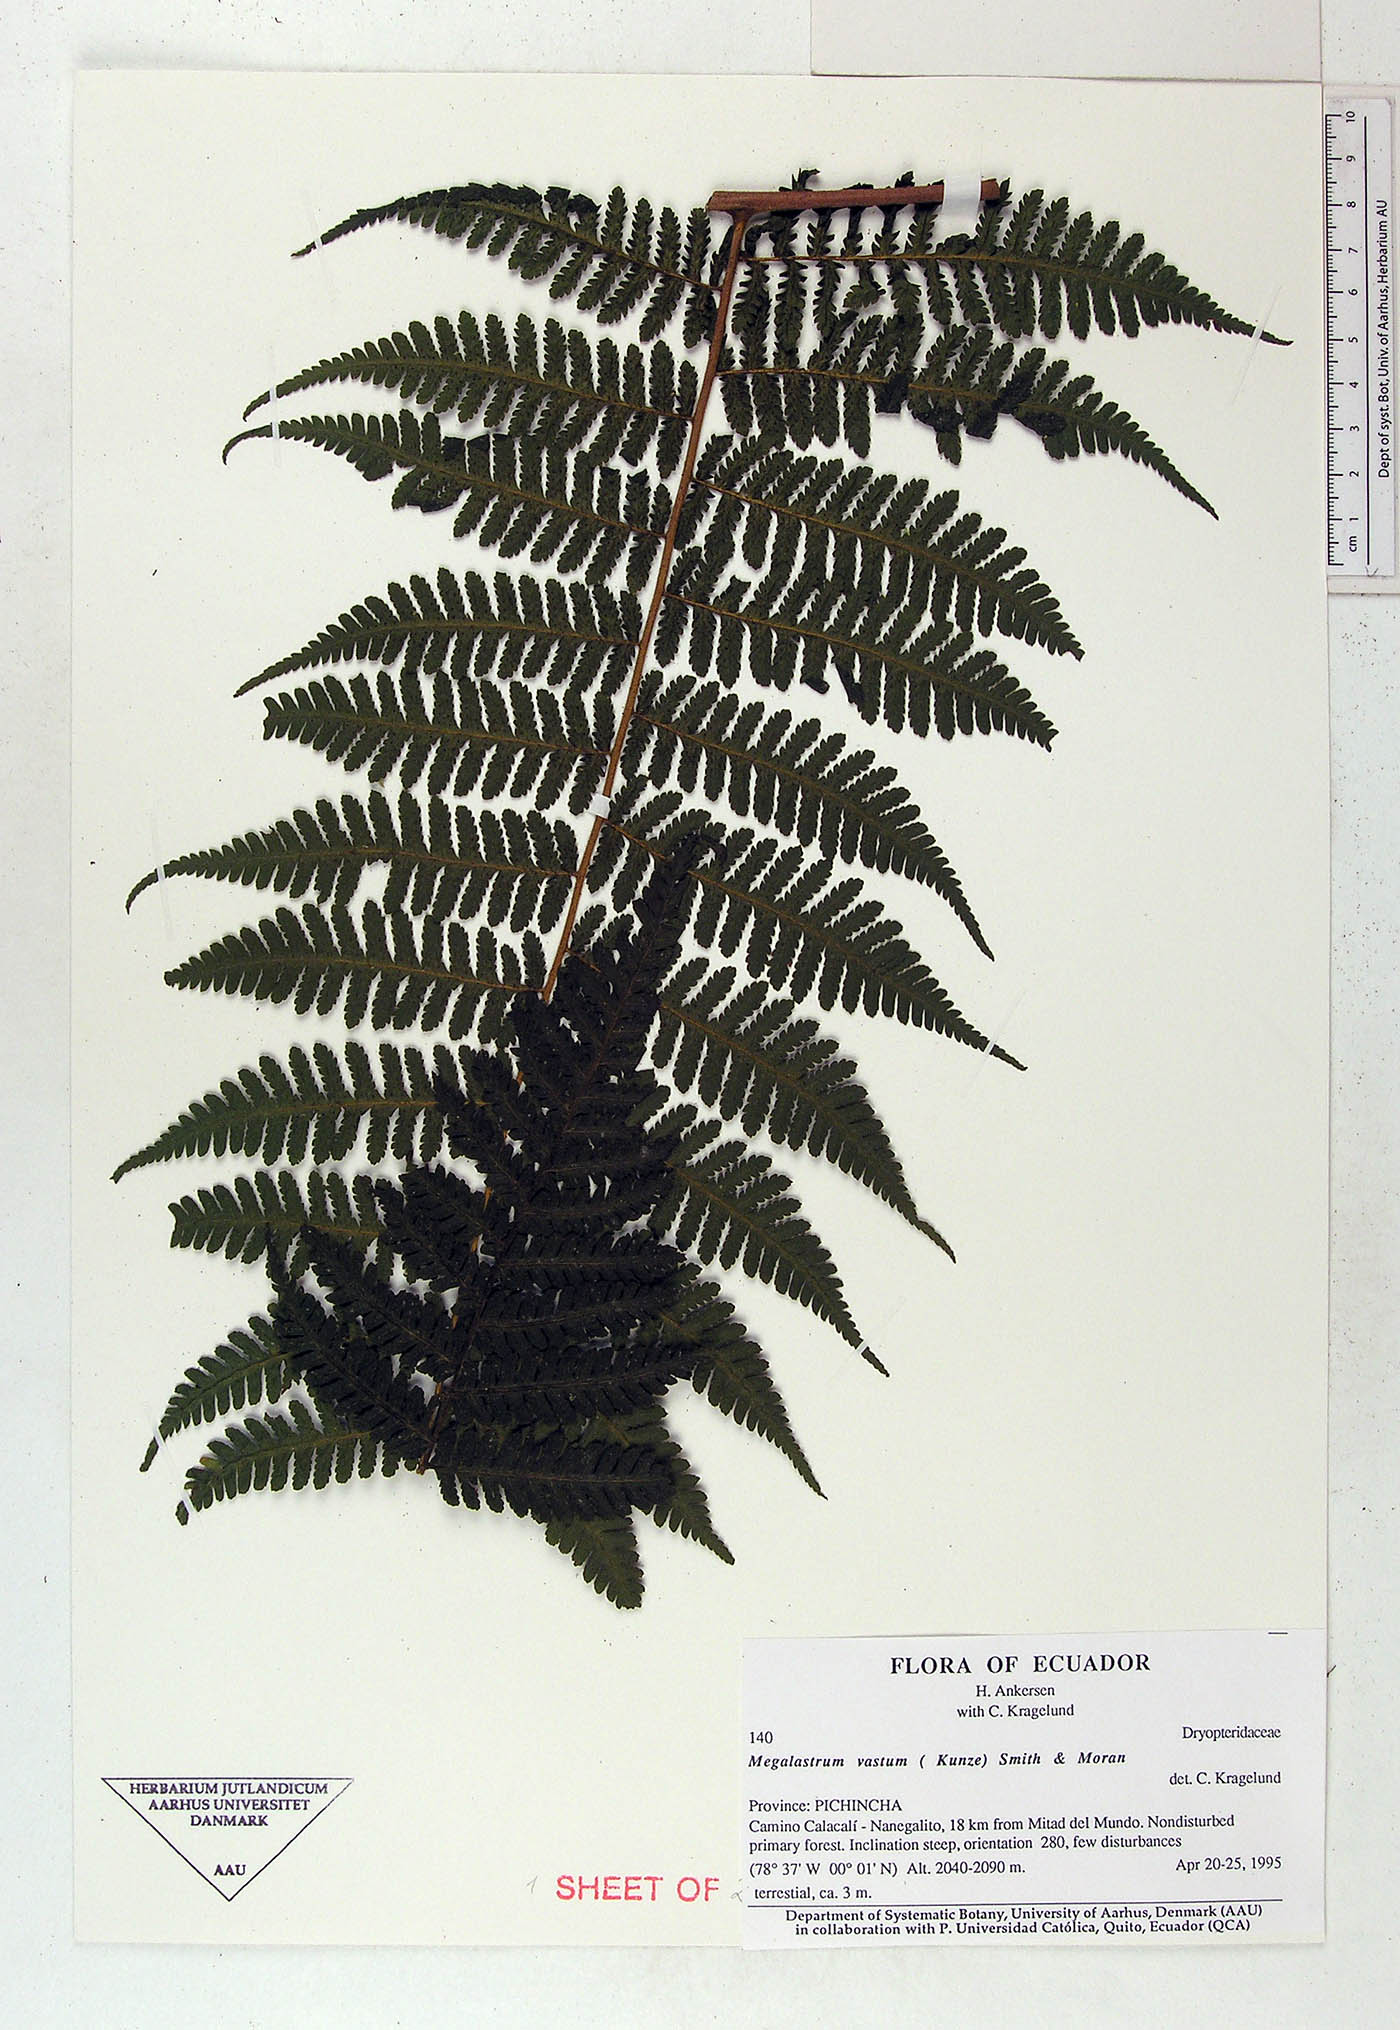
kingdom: Plantae
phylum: Tracheophyta
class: Polypodiopsida
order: Polypodiales
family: Dryopteridaceae
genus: Megalastrum
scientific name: Megalastrum fugaceum
